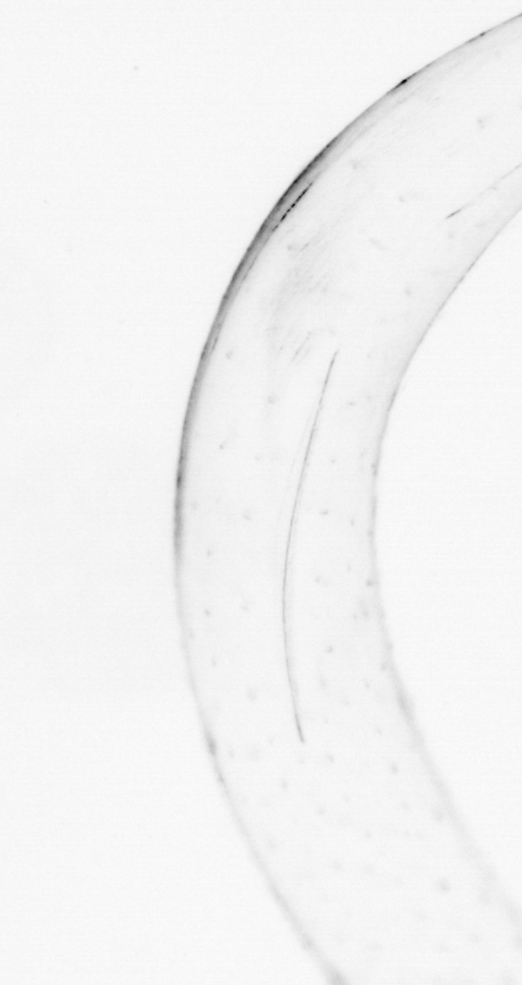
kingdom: Chromista
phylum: Ochrophyta
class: Bacillariophyceae
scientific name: Bacillariophyceae
